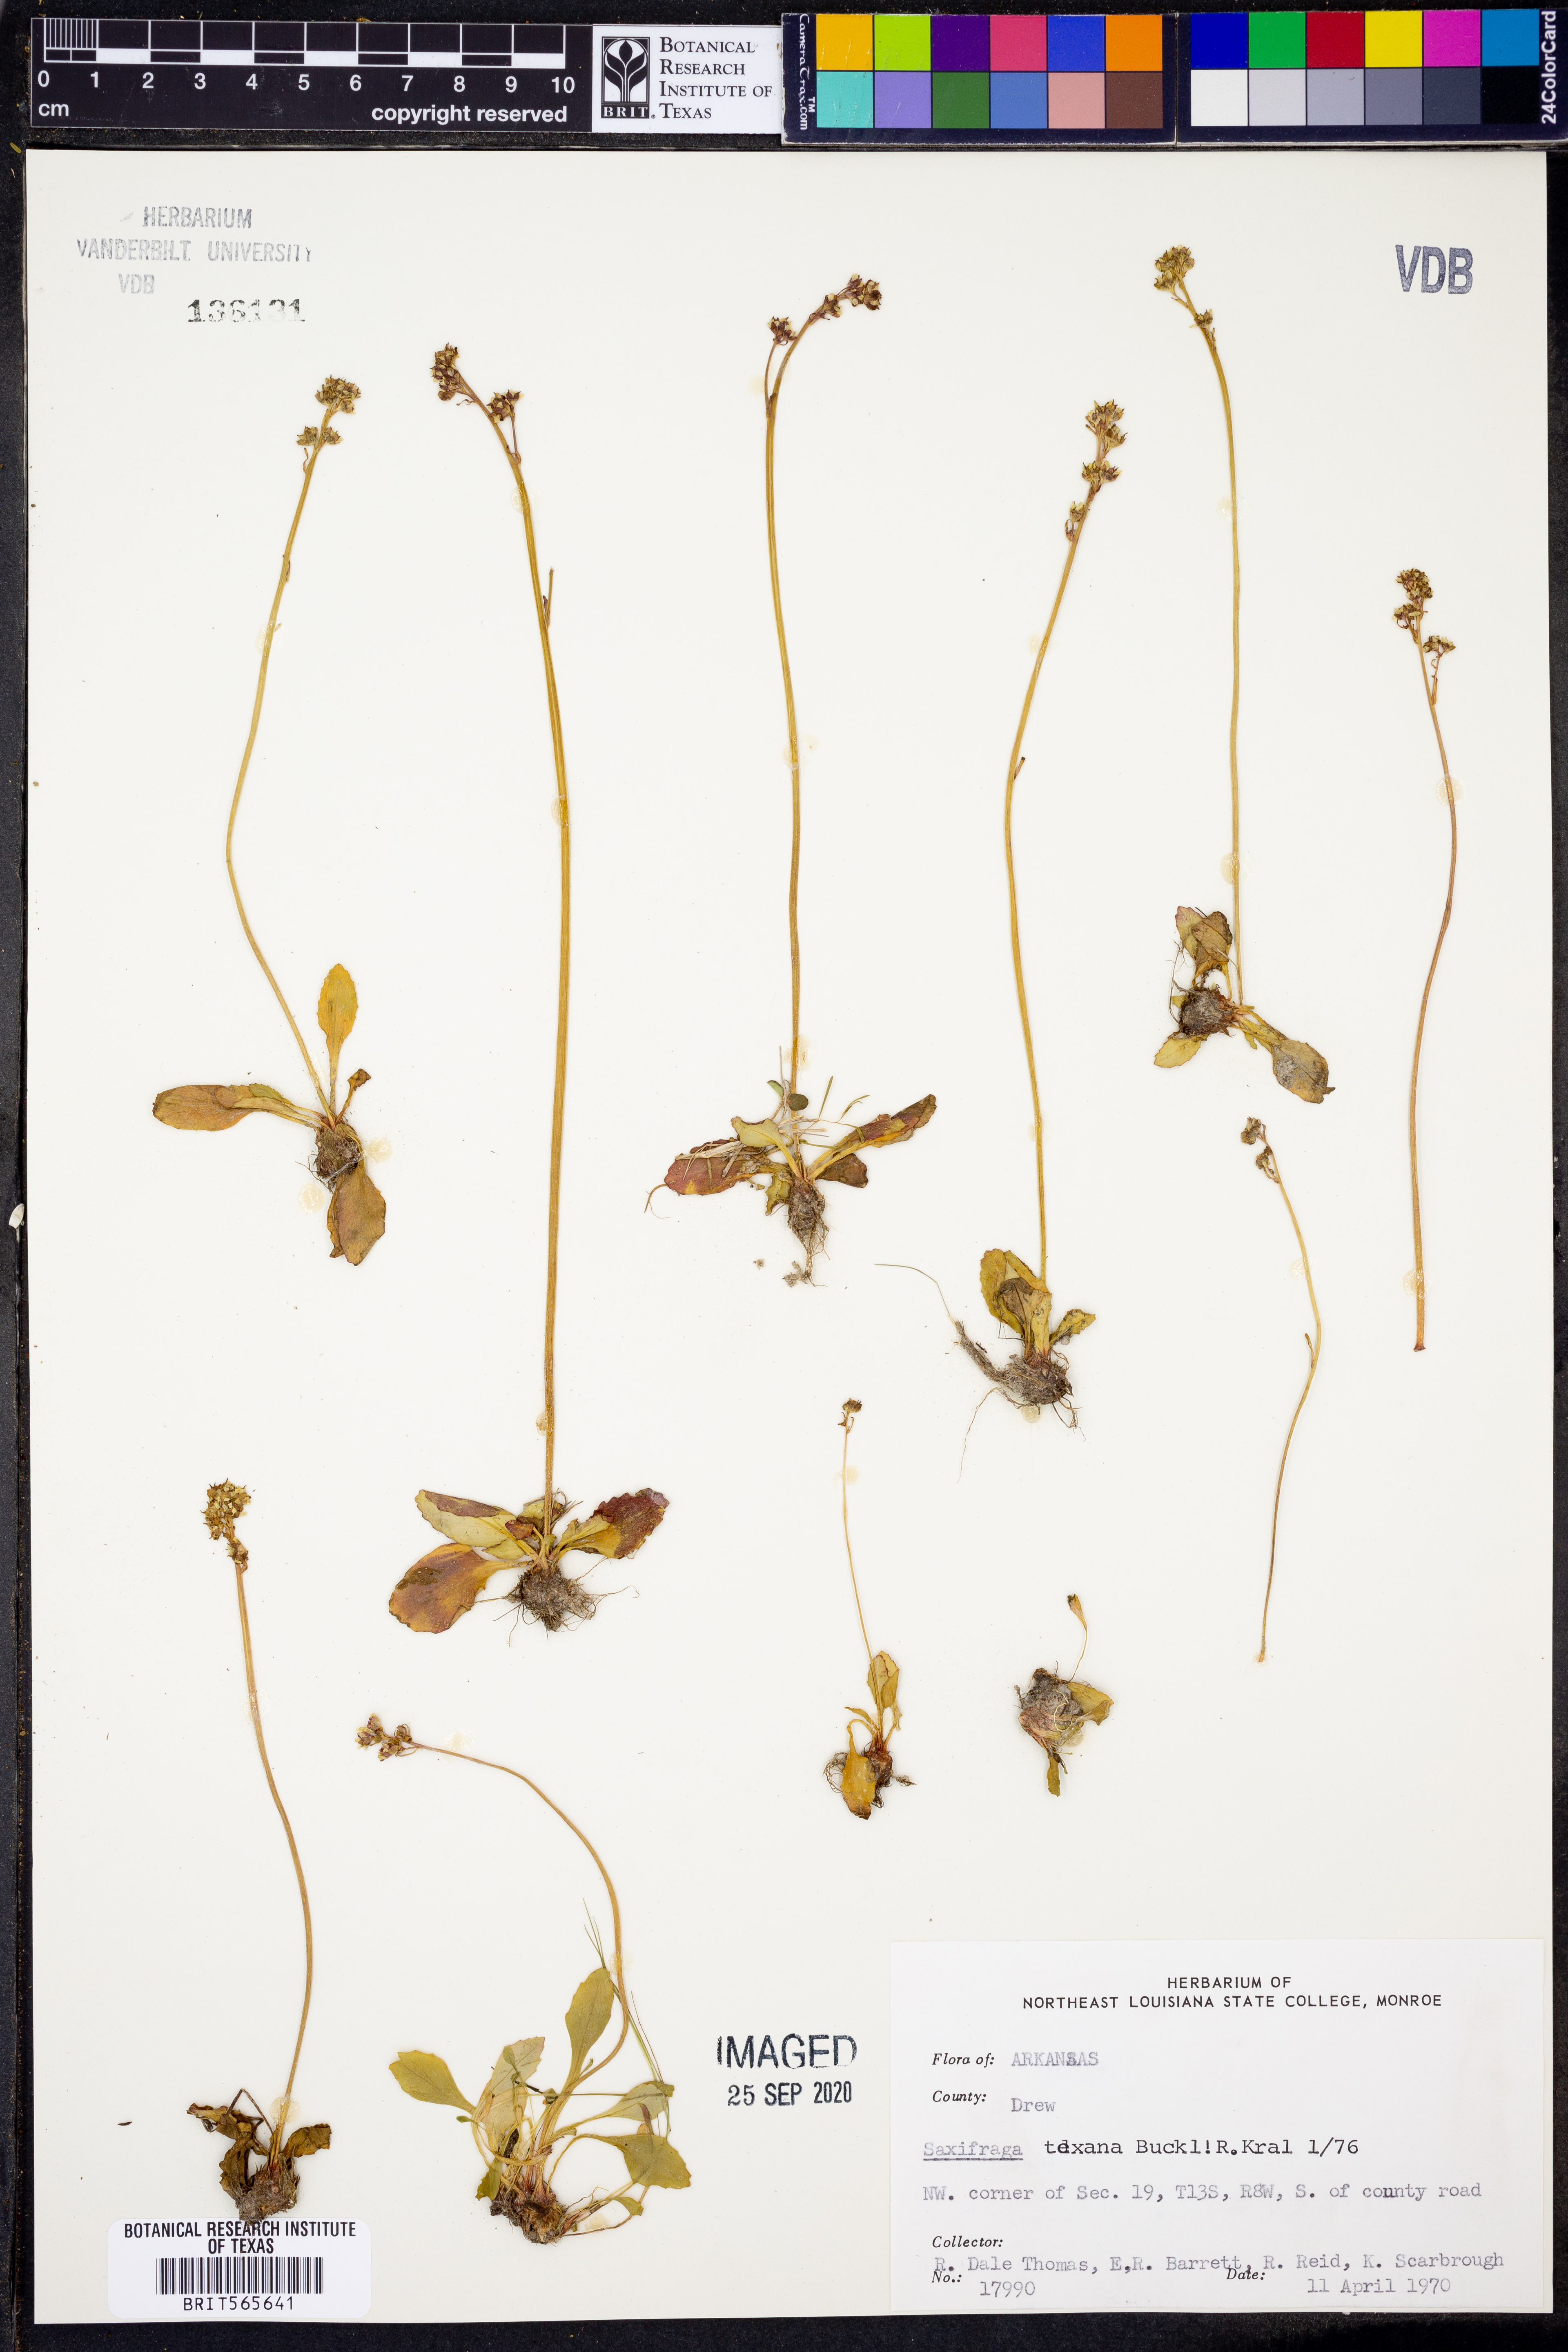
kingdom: Plantae
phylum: Tracheophyta
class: Magnoliopsida
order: Saxifragales
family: Saxifragaceae
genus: Micranthes
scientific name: Micranthes texana
